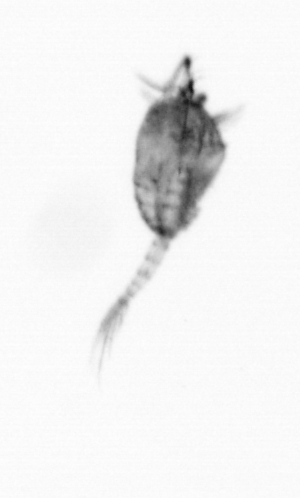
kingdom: Animalia
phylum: Arthropoda
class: Copepoda
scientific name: Copepoda
